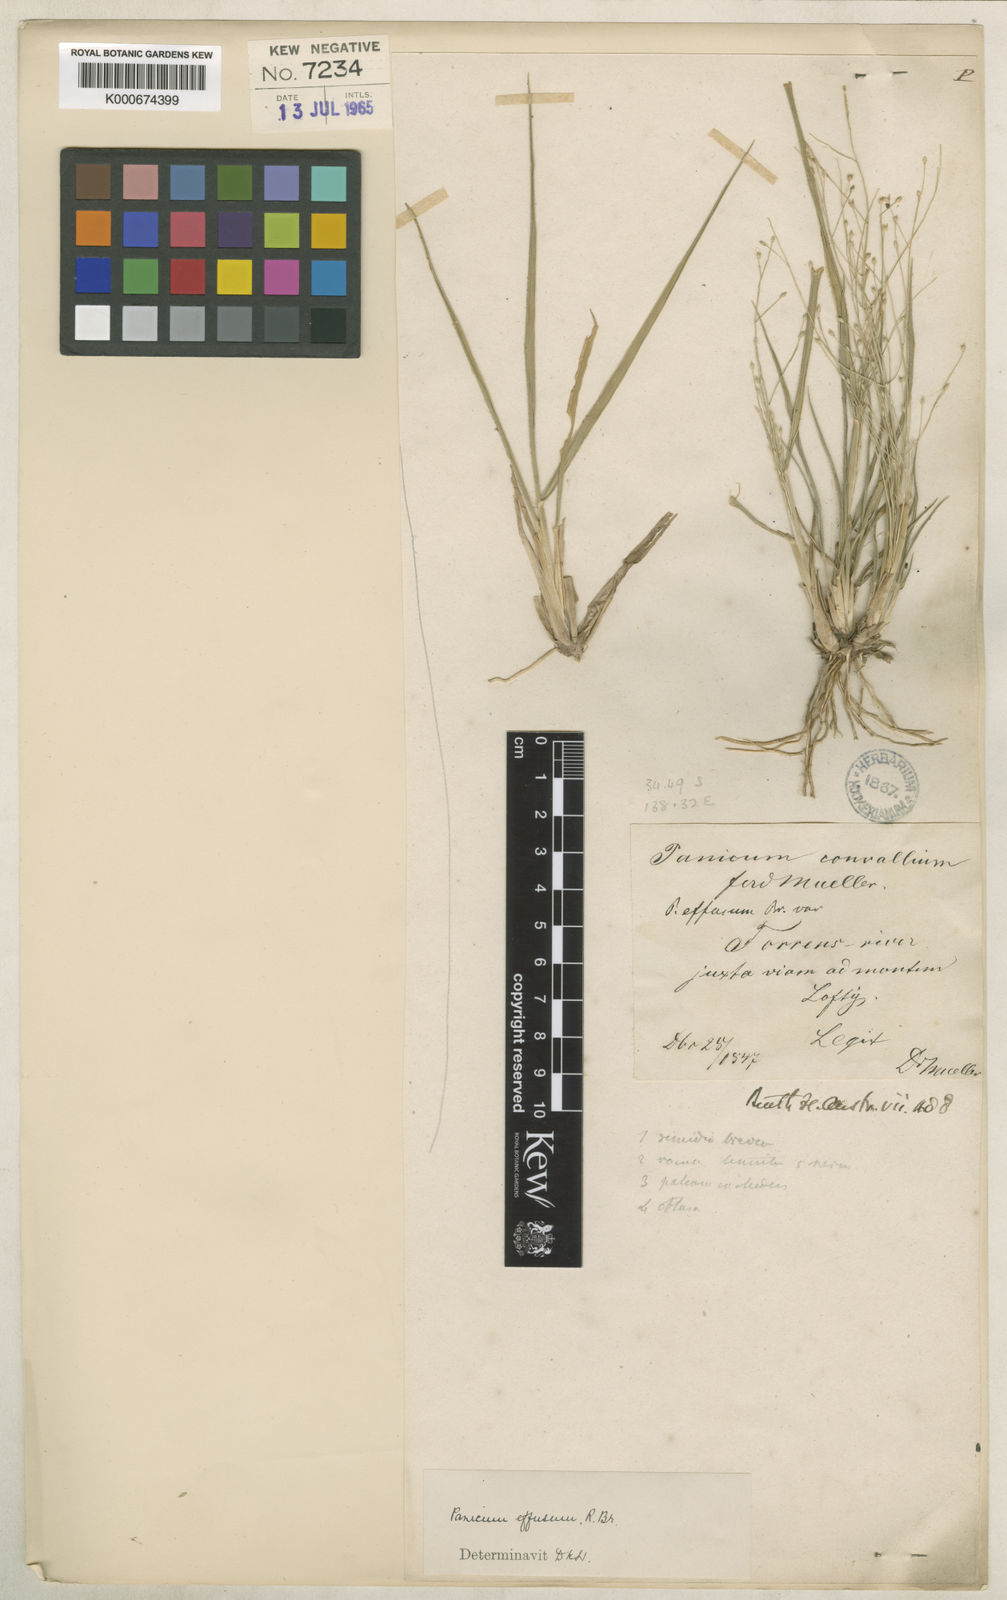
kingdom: Plantae
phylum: Tracheophyta
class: Liliopsida
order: Poales
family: Poaceae
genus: Panicum
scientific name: Panicum effusum
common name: Hairy panic grass
